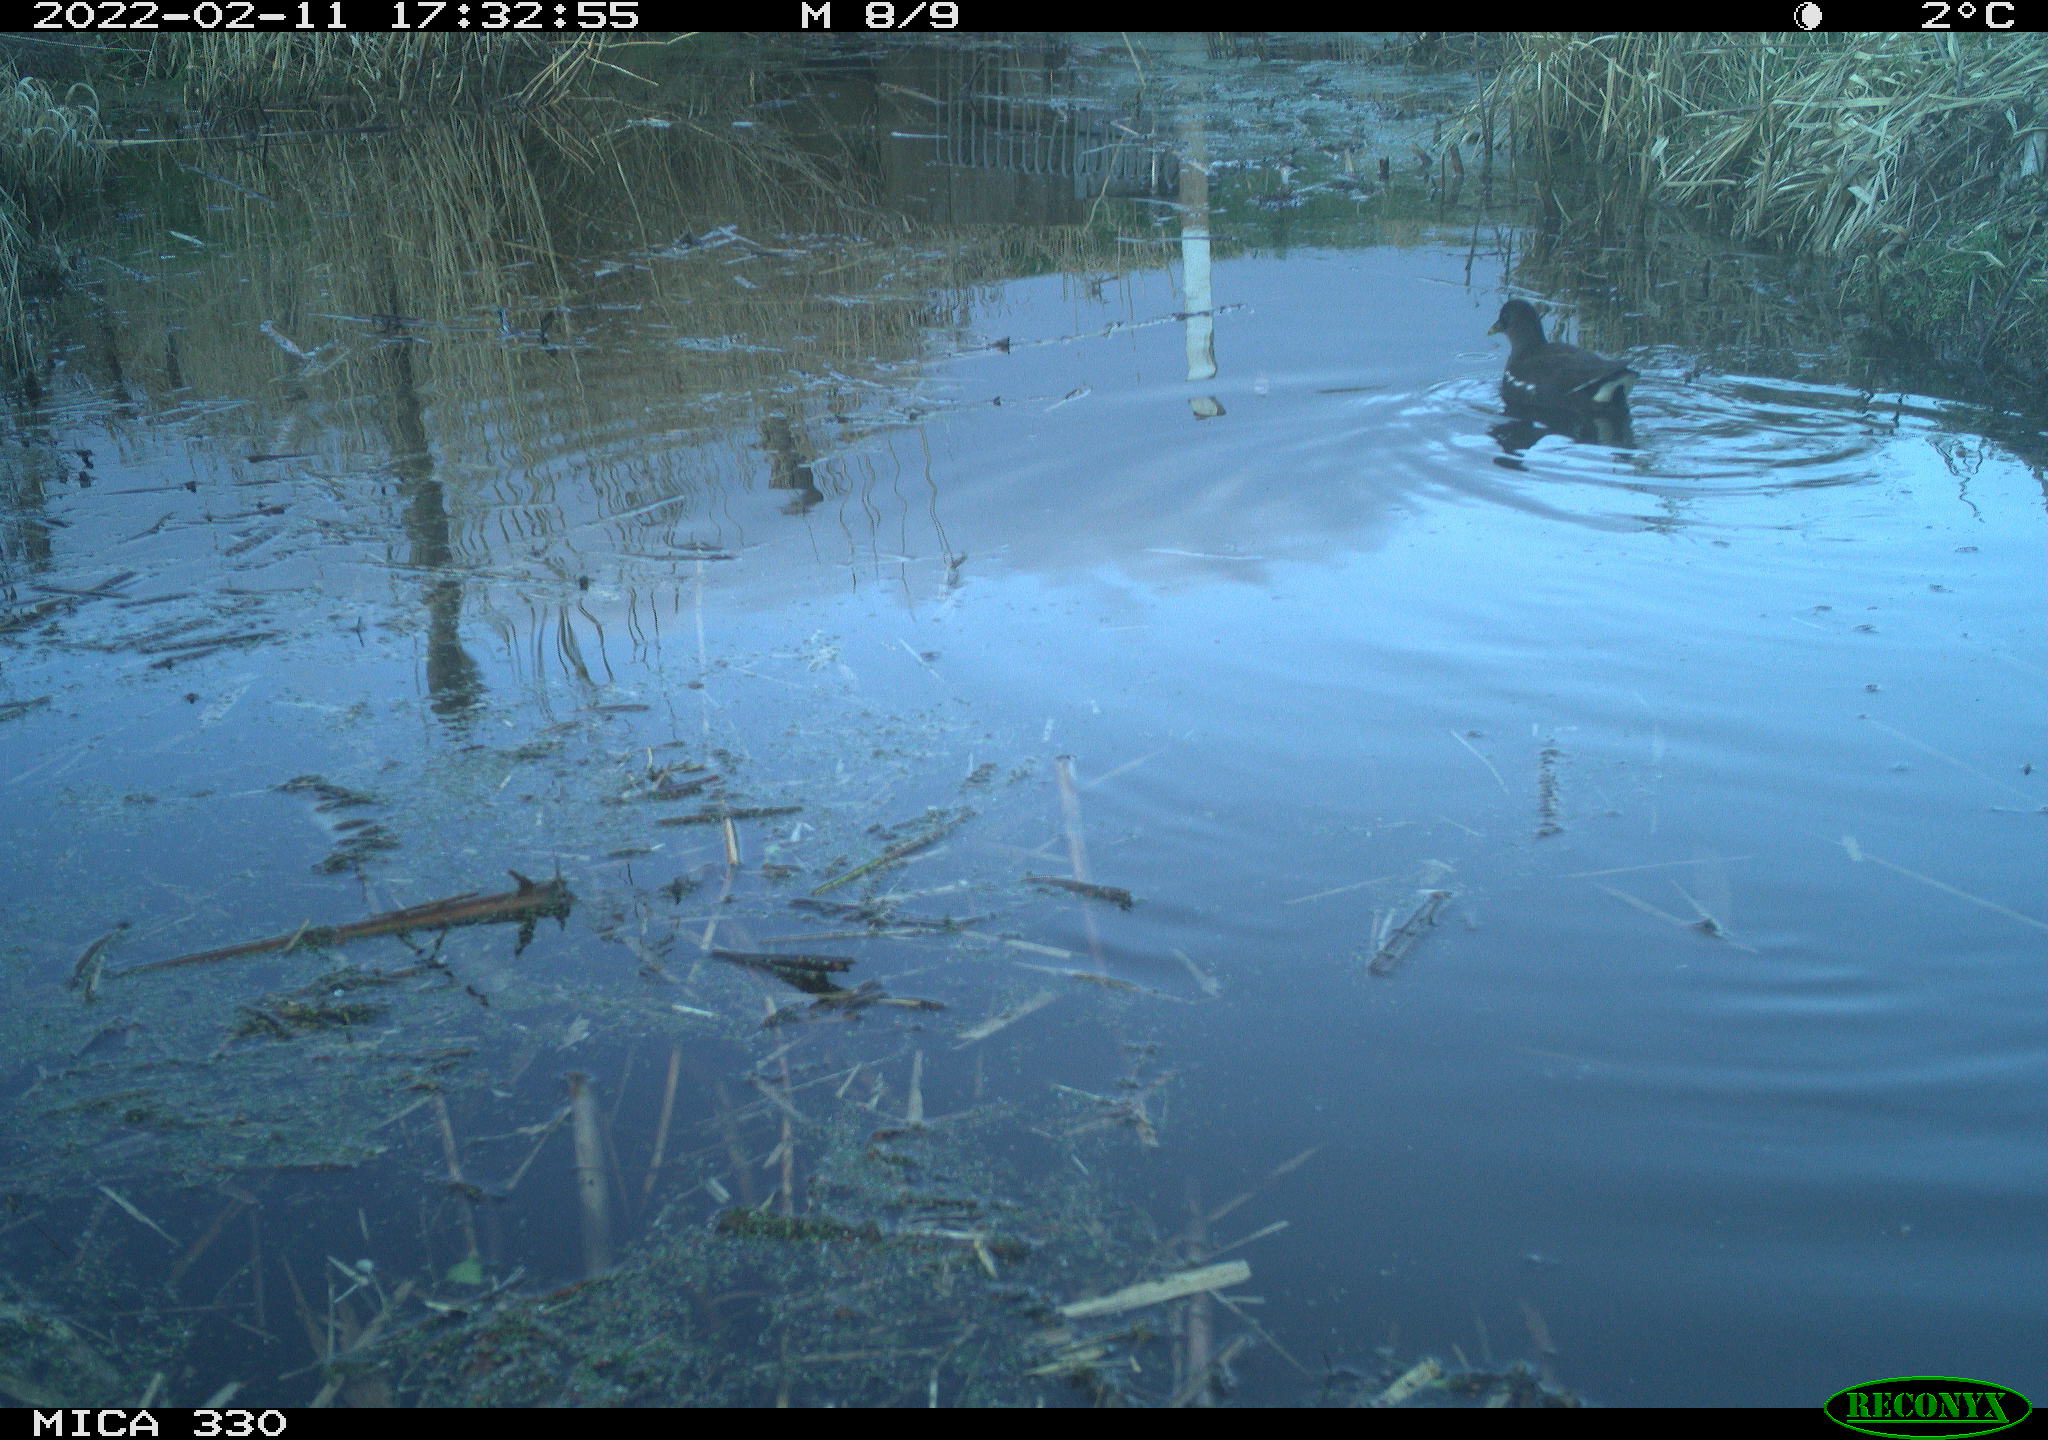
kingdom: Animalia
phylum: Chordata
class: Aves
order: Gruiformes
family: Rallidae
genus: Gallinula
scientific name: Gallinula chloropus
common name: Common moorhen
